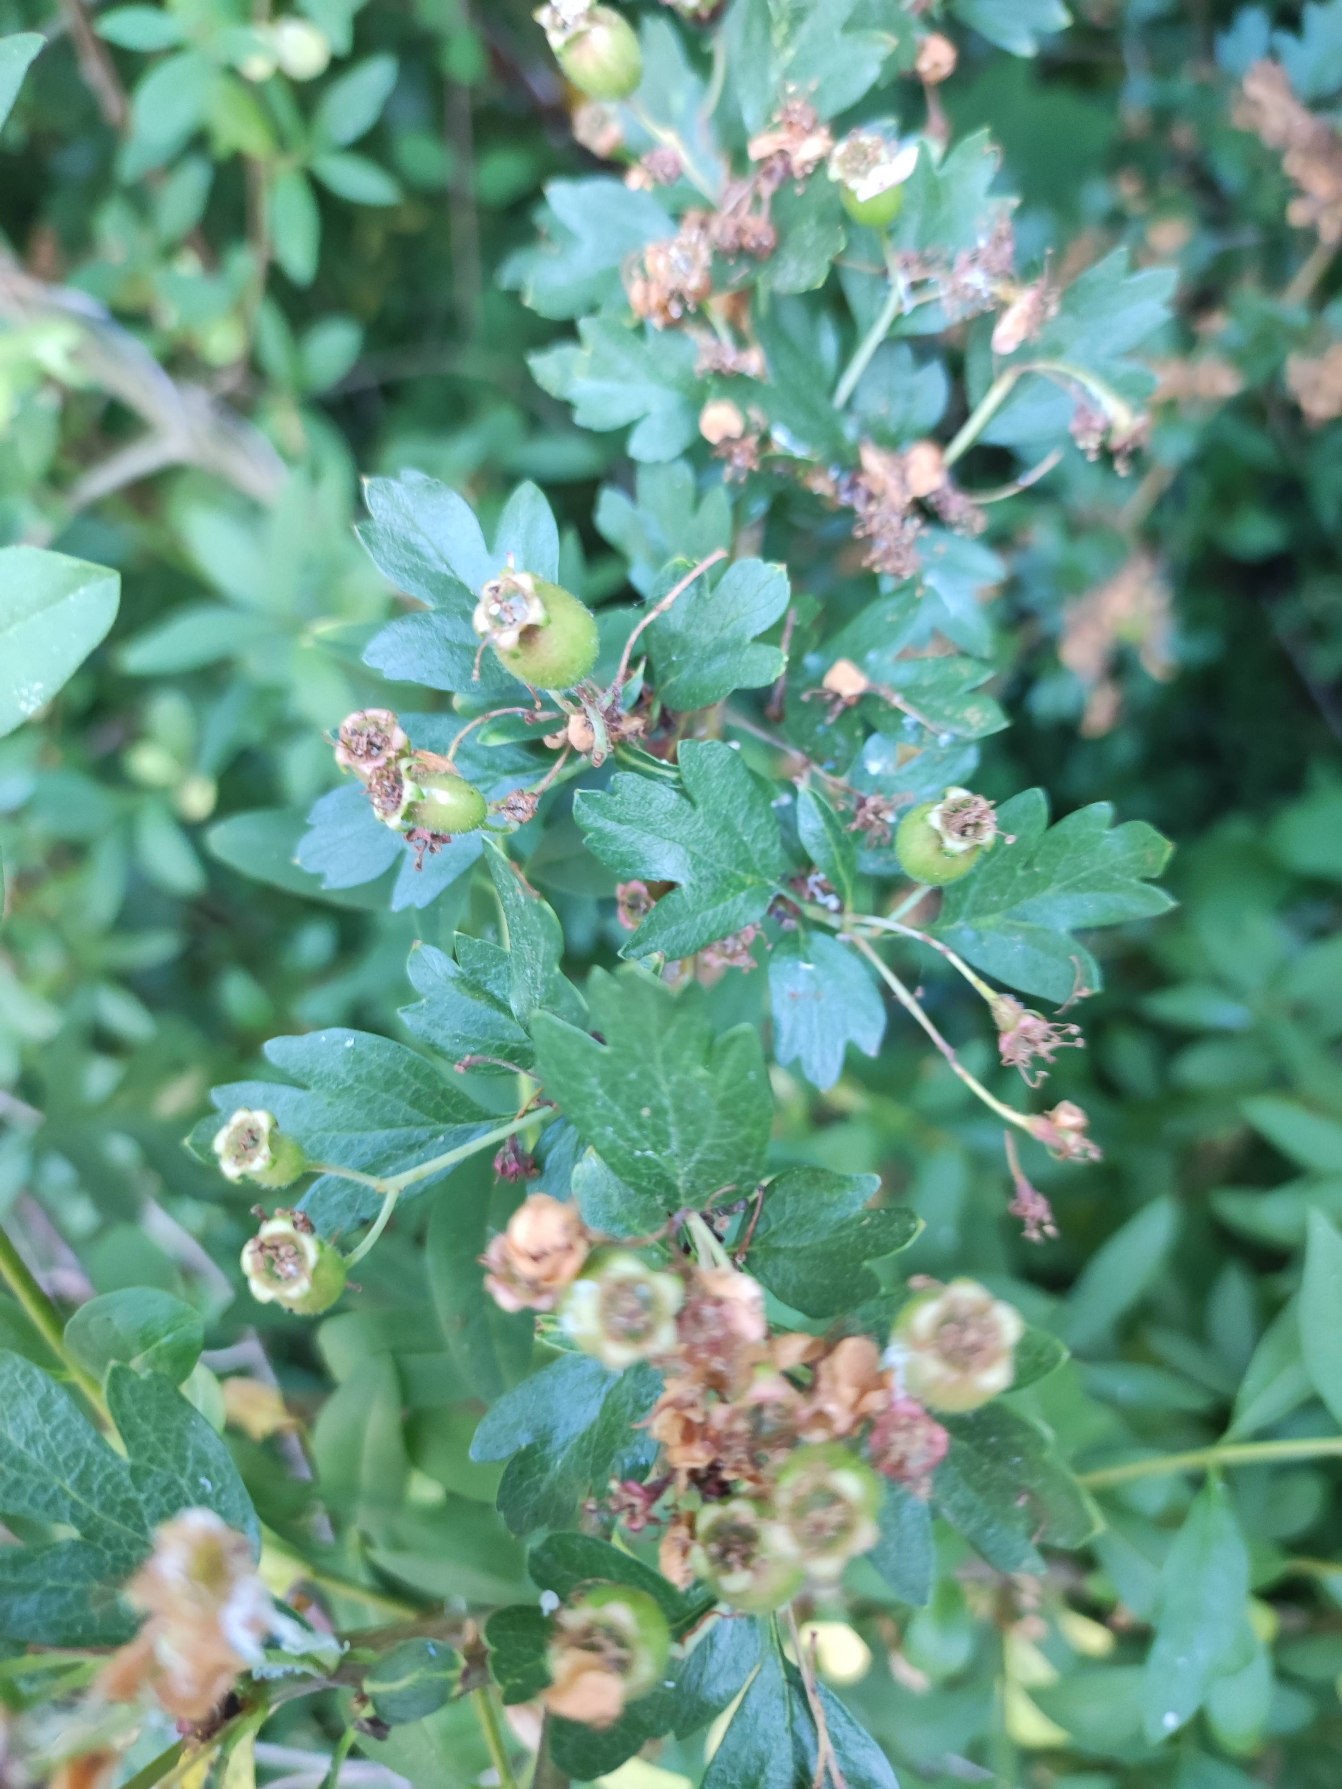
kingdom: Plantae
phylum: Tracheophyta
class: Magnoliopsida
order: Rosales
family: Rosaceae
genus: Crataegus
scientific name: Crataegus monogyna
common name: Engriflet hvidtjørn
